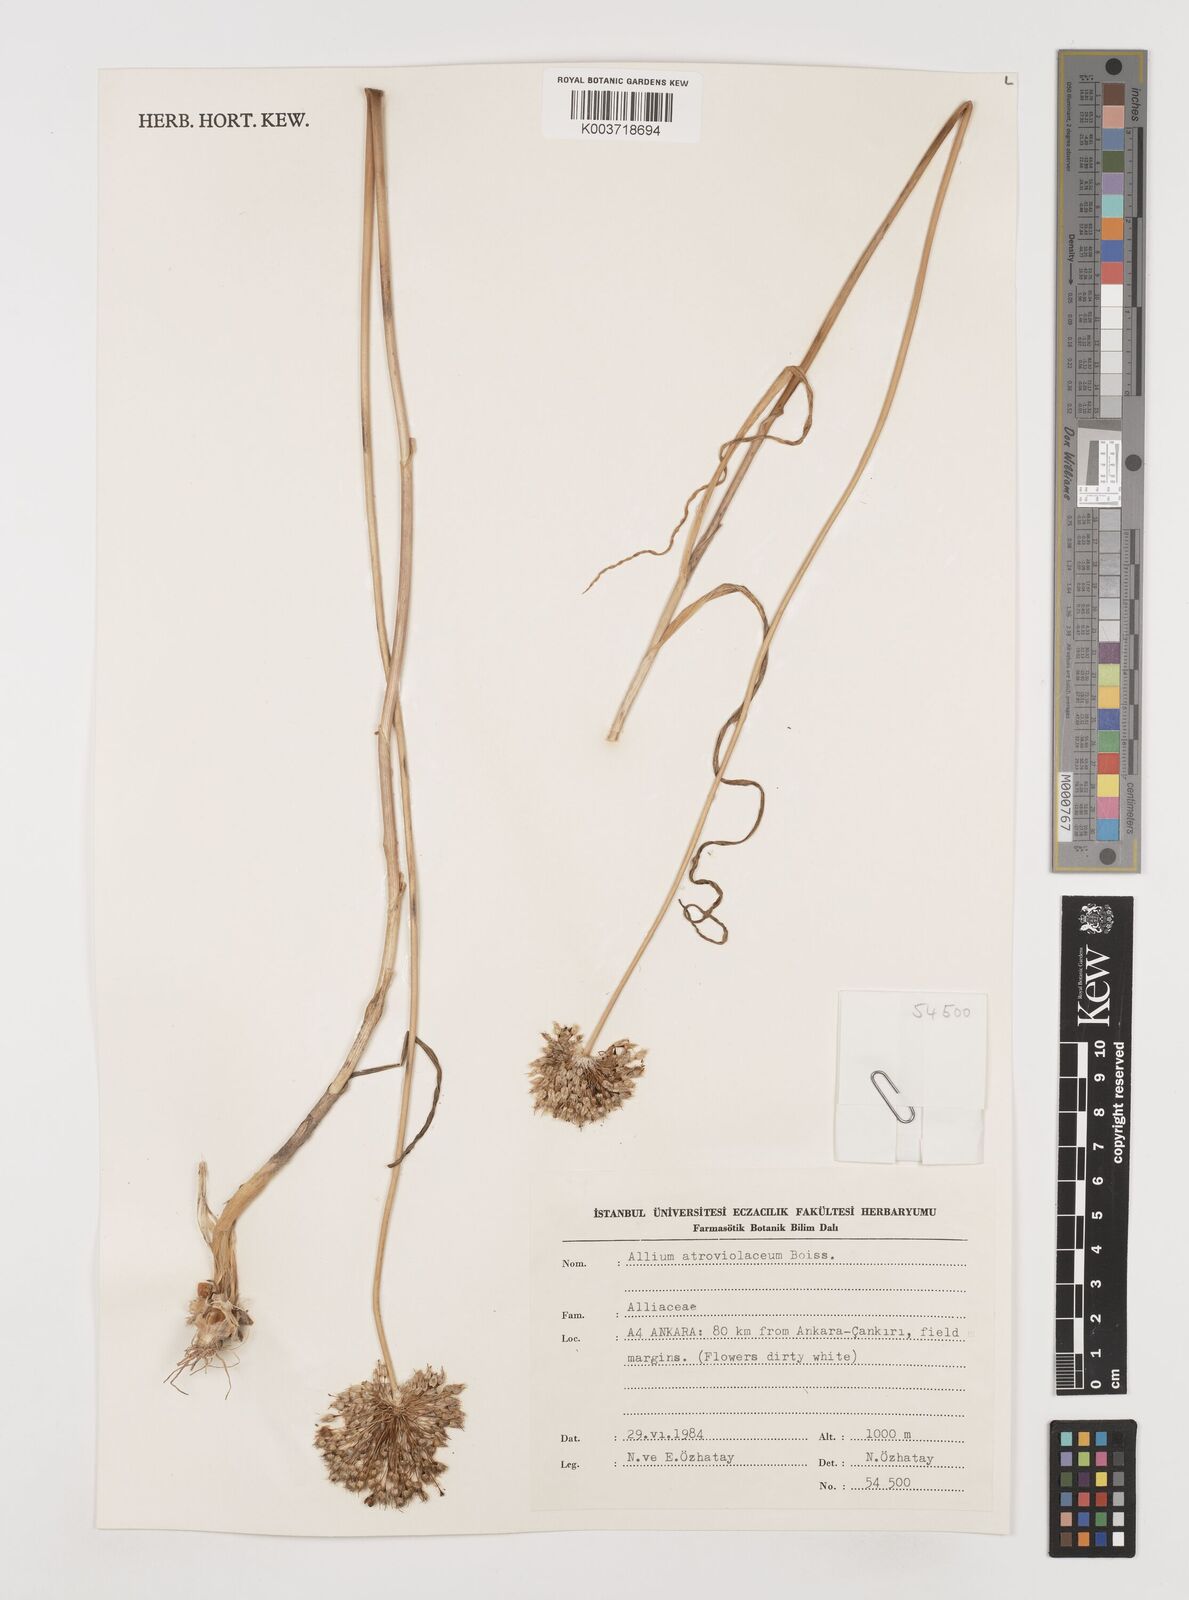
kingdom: Plantae
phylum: Tracheophyta
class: Liliopsida
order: Asparagales
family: Amaryllidaceae
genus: Allium
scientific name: Allium atroviolaceum
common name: Broadleaf wild leek
